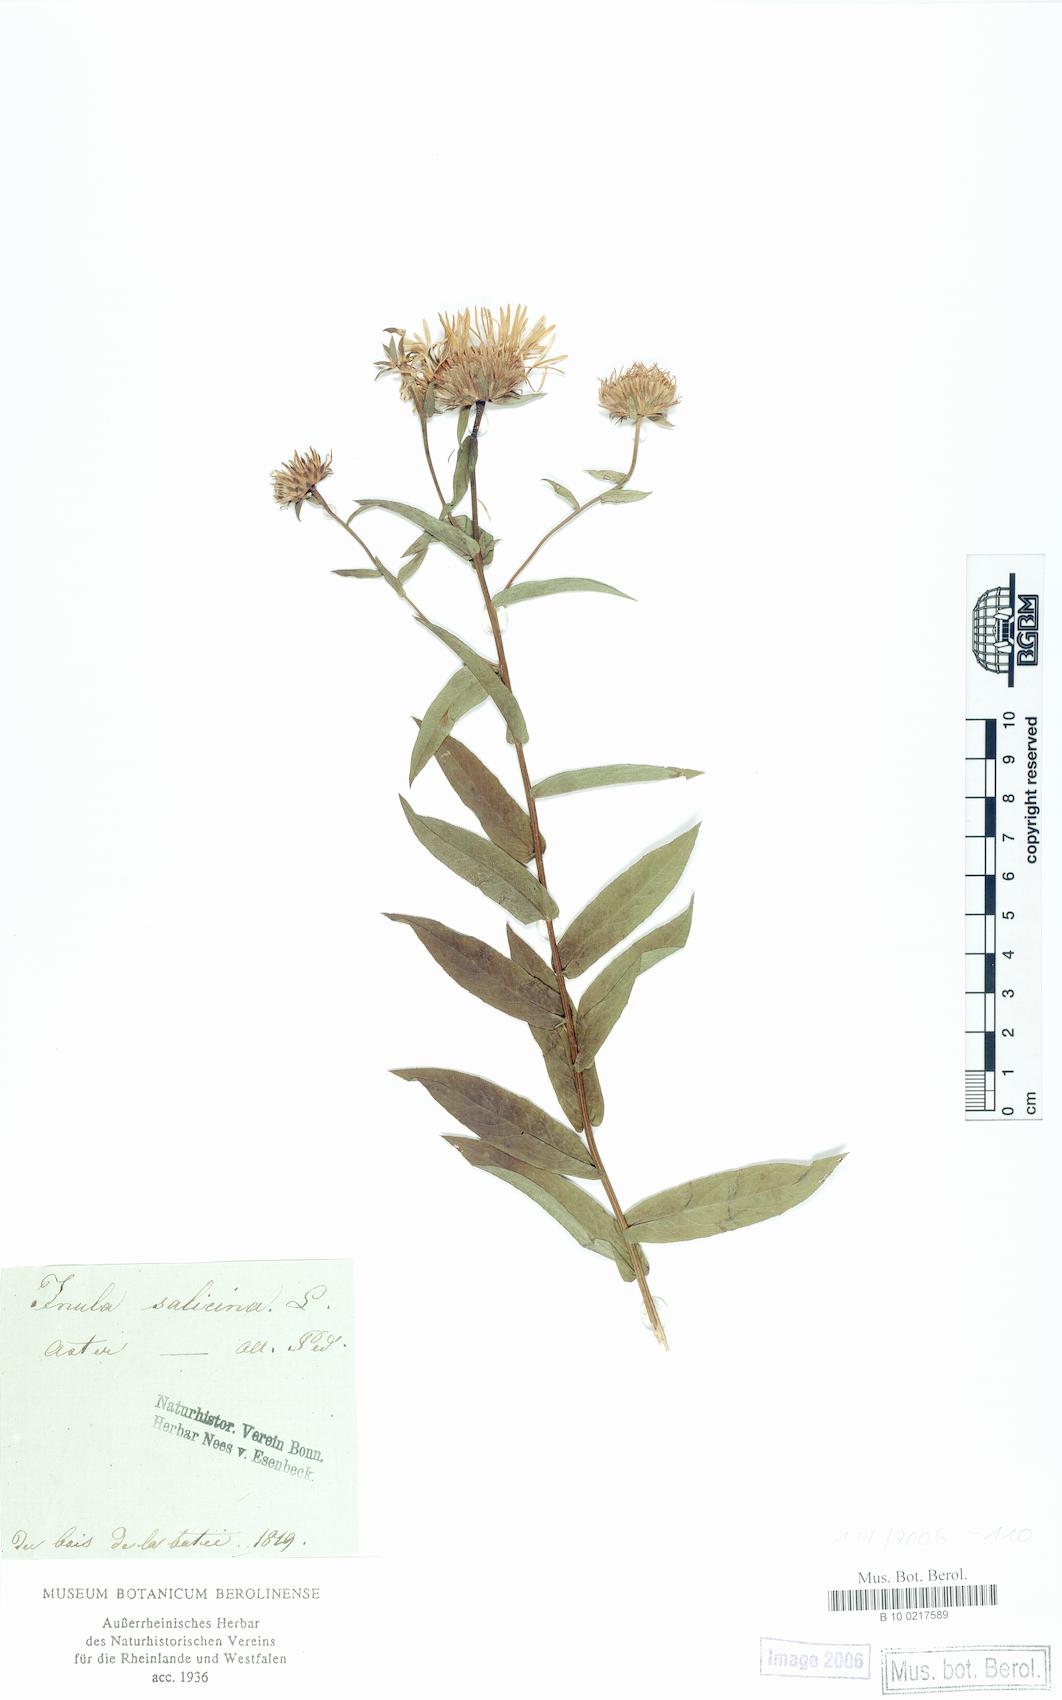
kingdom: Plantae
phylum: Tracheophyta
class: Magnoliopsida
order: Asterales
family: Asteraceae
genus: Pentanema
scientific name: Pentanema salicinum
